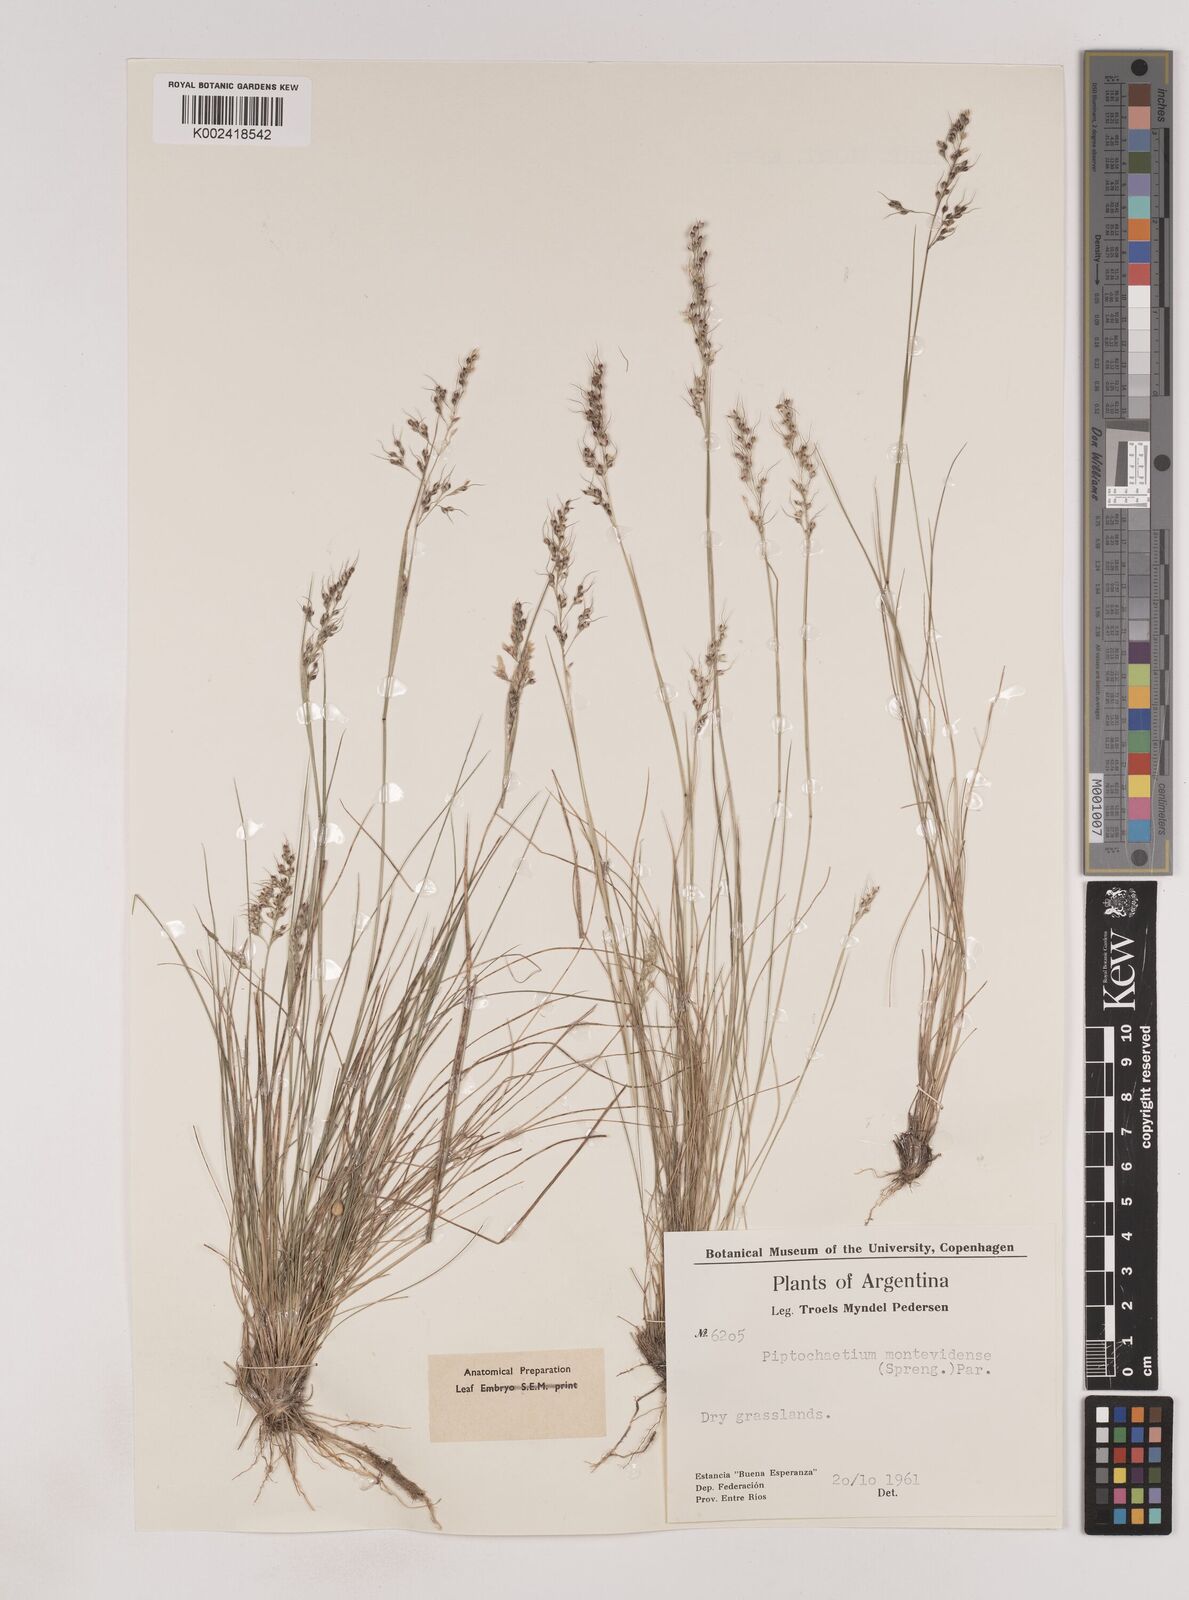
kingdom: Plantae
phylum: Tracheophyta
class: Liliopsida
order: Poales
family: Poaceae
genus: Piptochaetium
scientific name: Piptochaetium montevidense
